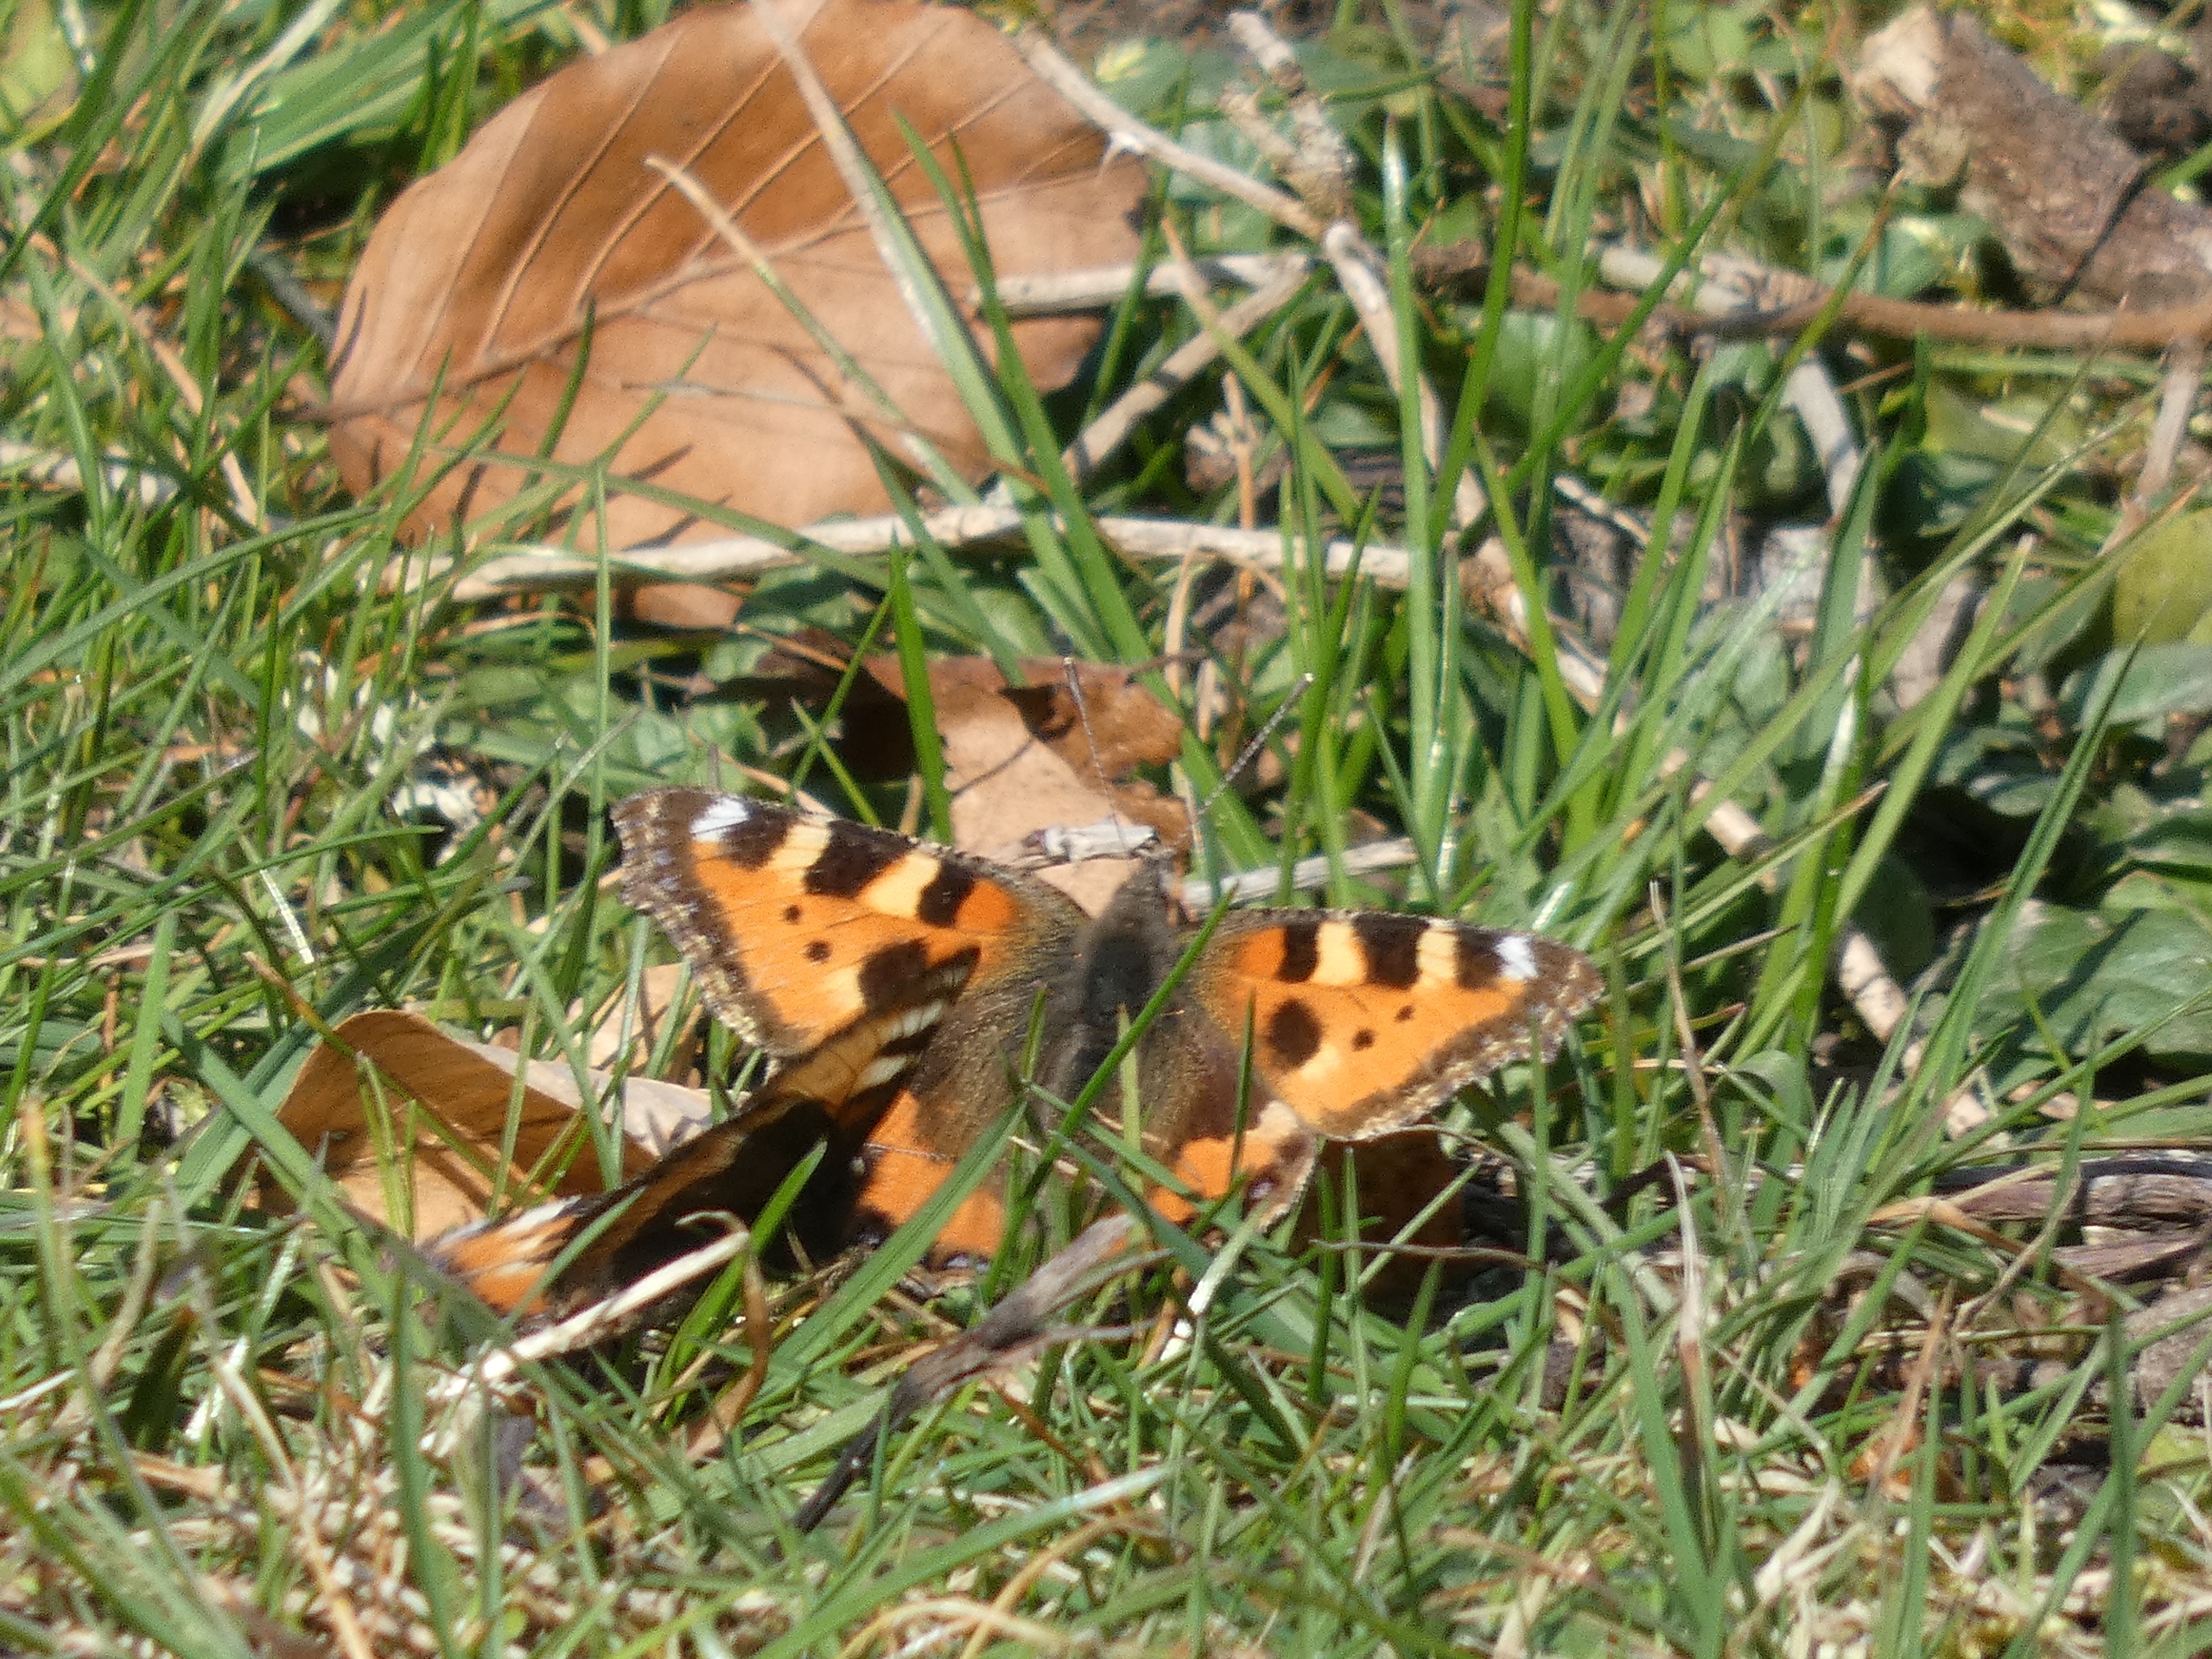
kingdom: Animalia
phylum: Arthropoda
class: Insecta
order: Lepidoptera
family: Nymphalidae
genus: Aglais
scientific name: Aglais urticae
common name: Nældens takvinge
